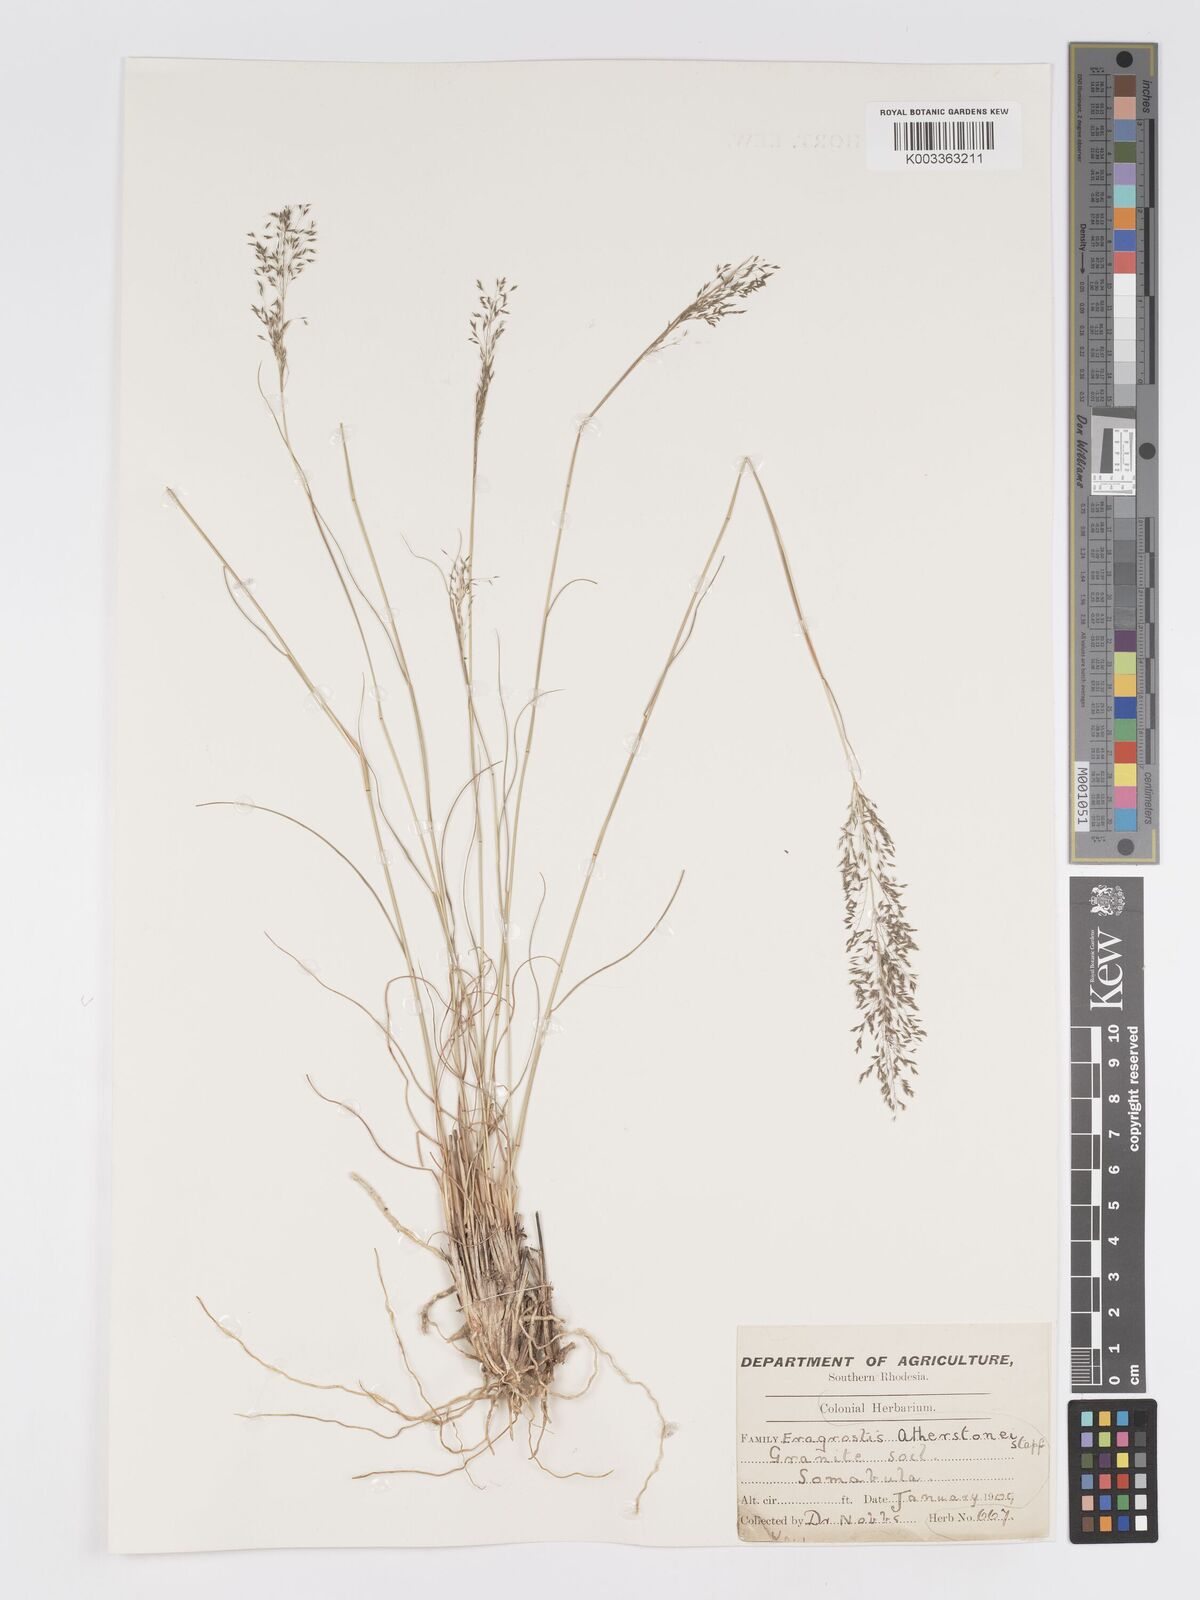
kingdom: Plantae
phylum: Tracheophyta
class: Liliopsida
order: Poales
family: Poaceae
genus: Eragrostis
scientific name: Eragrostis stapfii
